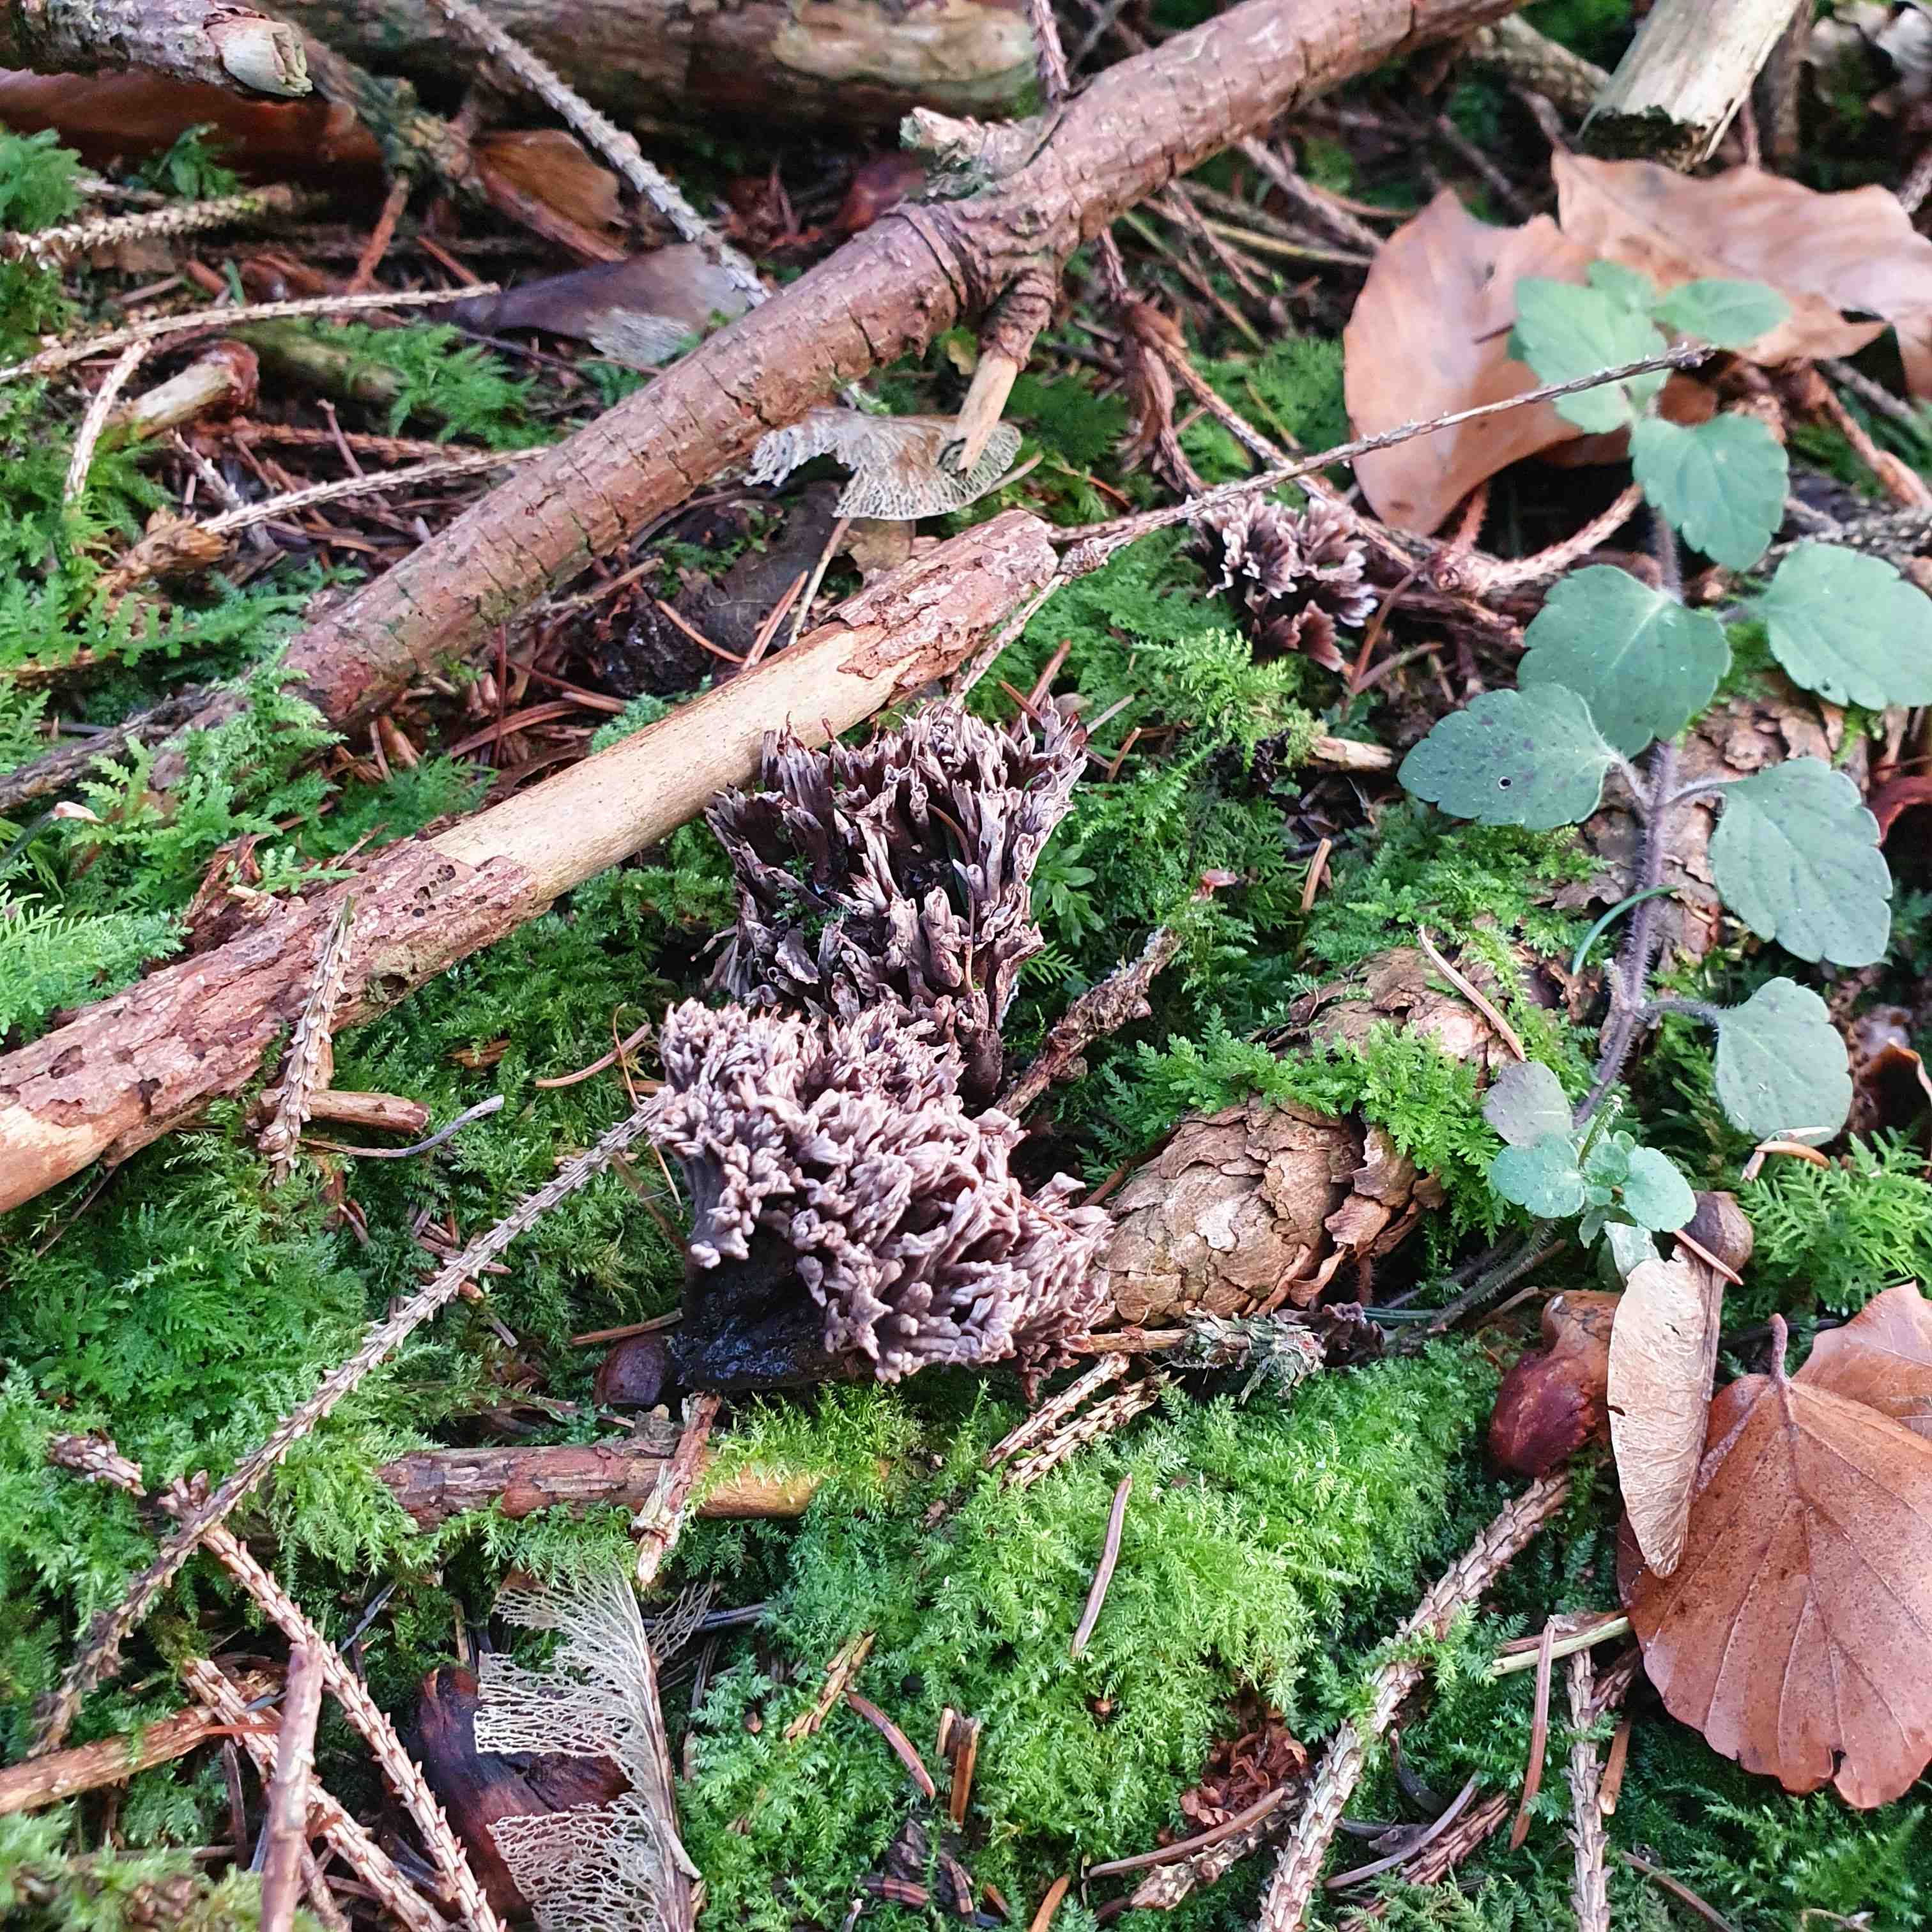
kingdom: Fungi
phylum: Basidiomycota
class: Agaricomycetes
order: Thelephorales
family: Thelephoraceae
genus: Thelephora
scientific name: Thelephora palmata
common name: grenet frynsesvamp
